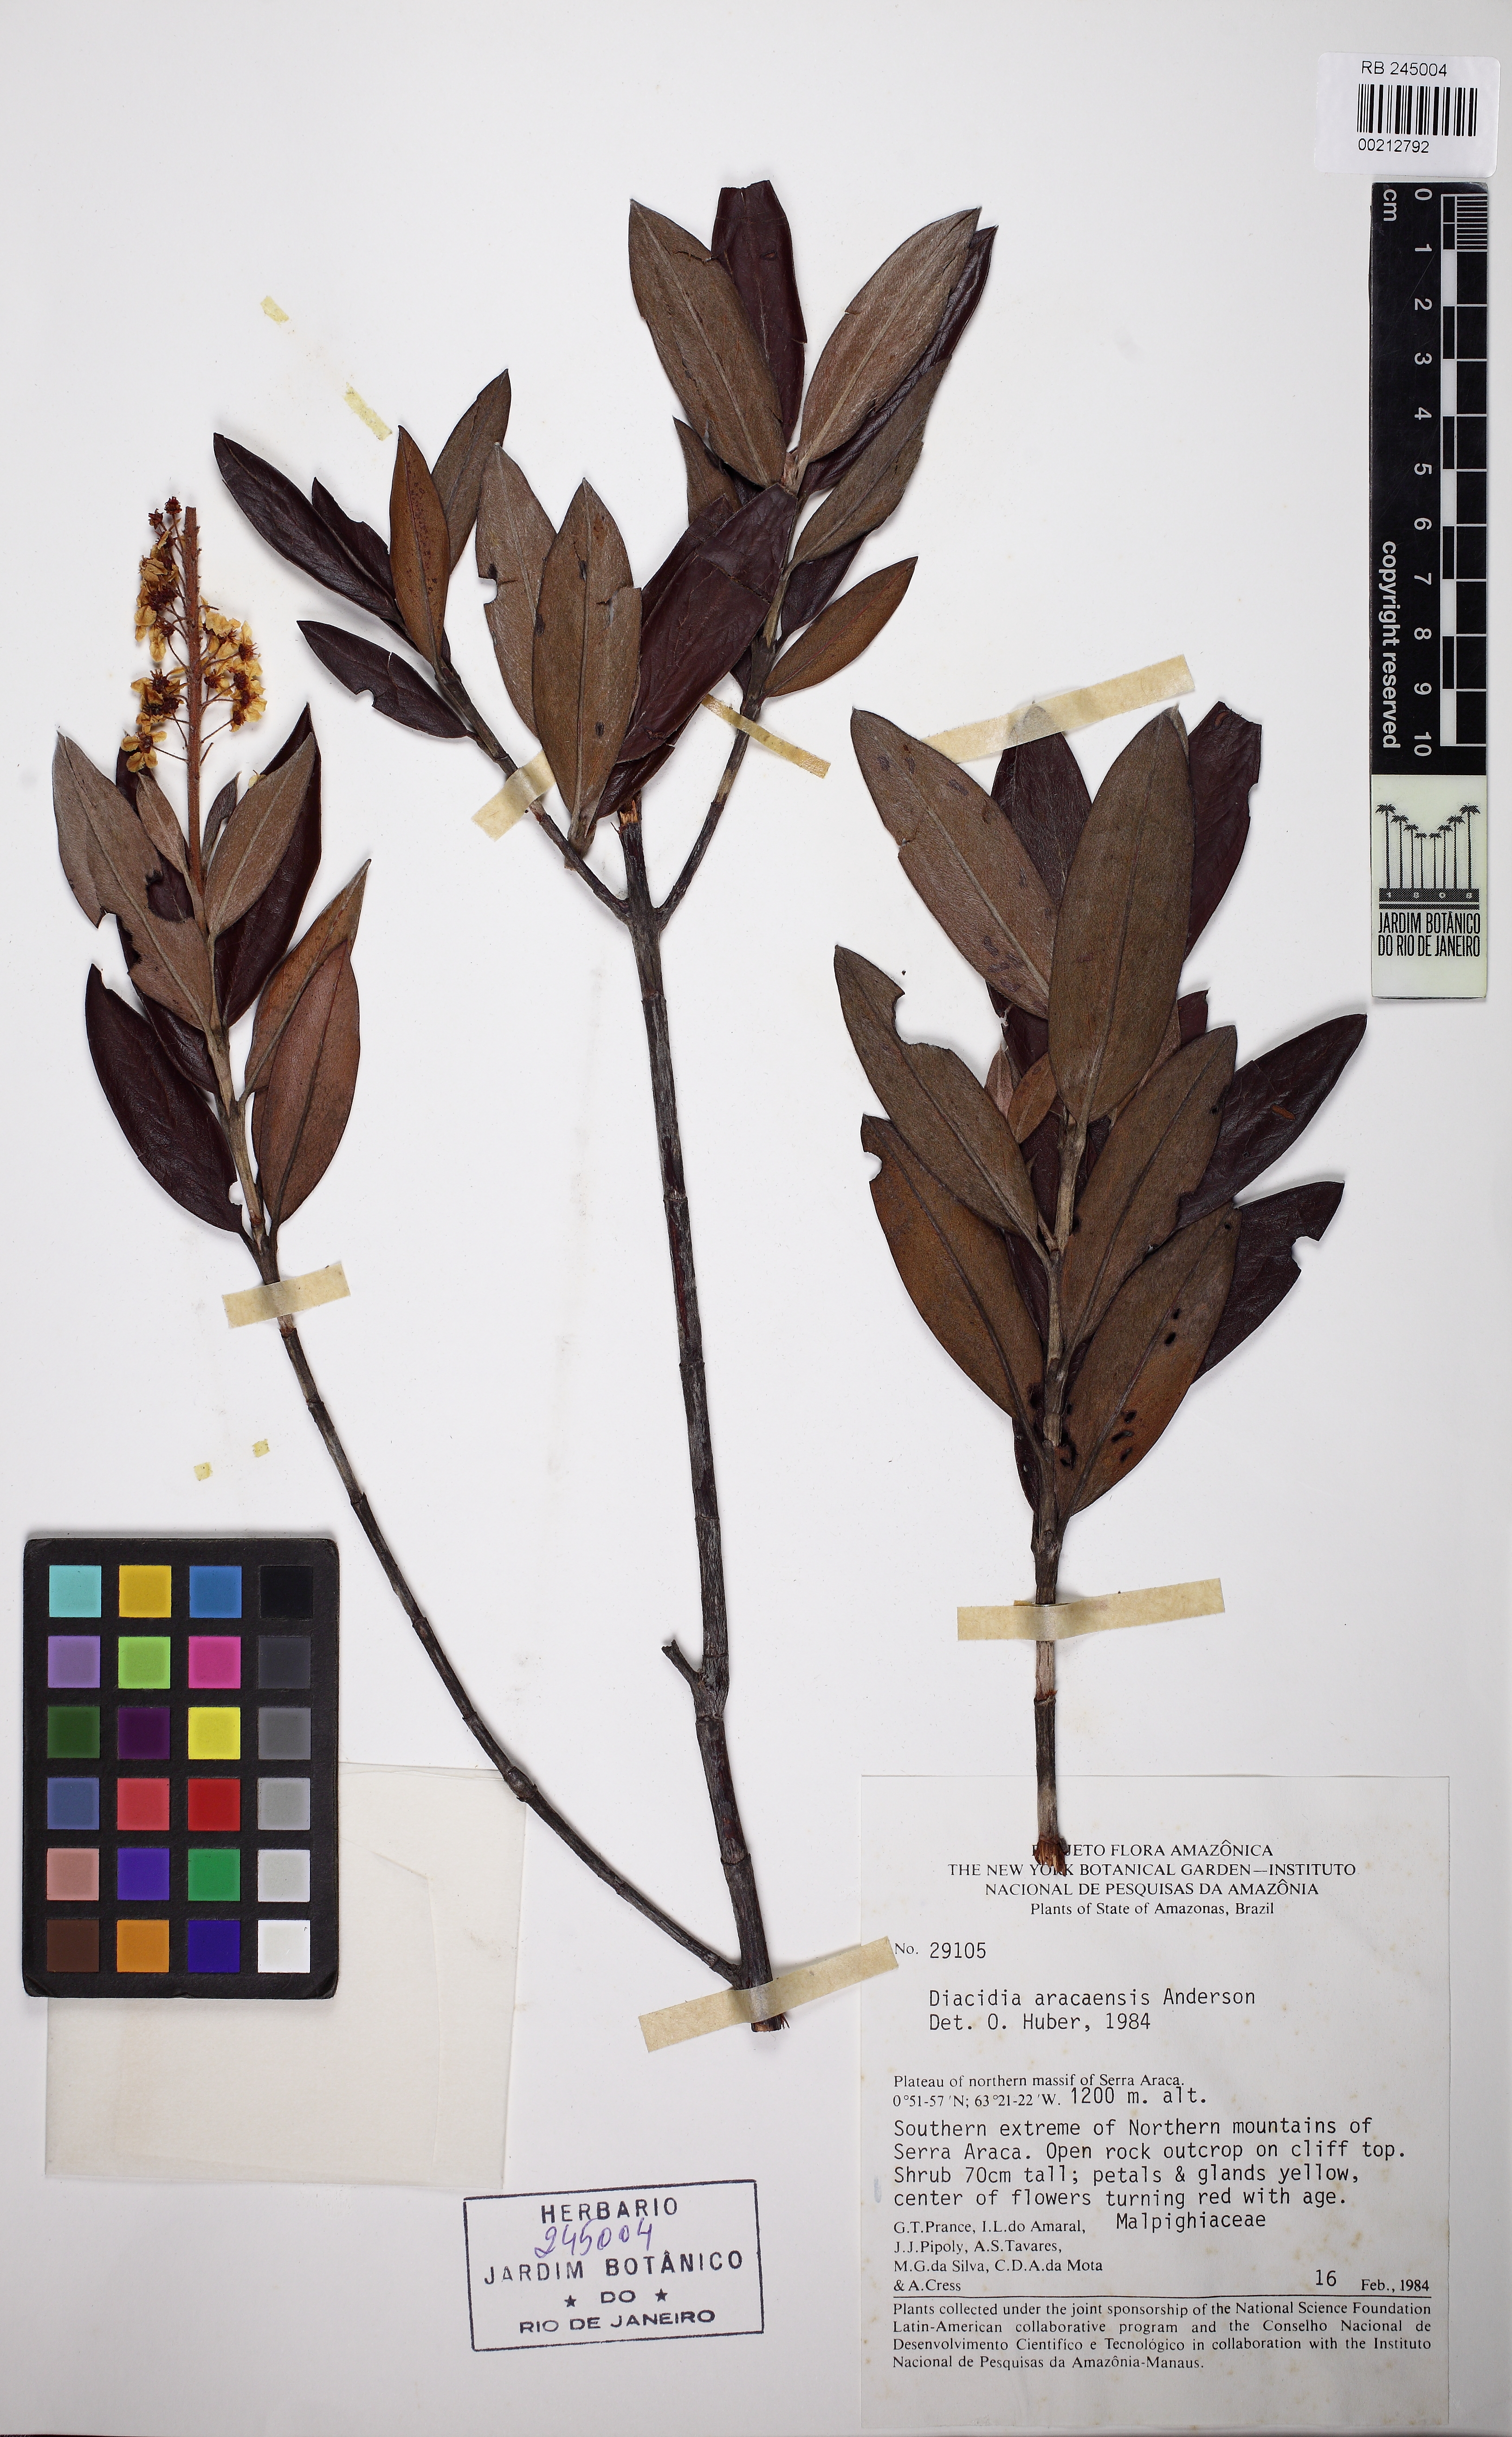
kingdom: Plantae
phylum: Tracheophyta
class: Magnoliopsida
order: Malpighiales
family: Malpighiaceae
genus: Diacidia
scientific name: Diacidia aracaensis
